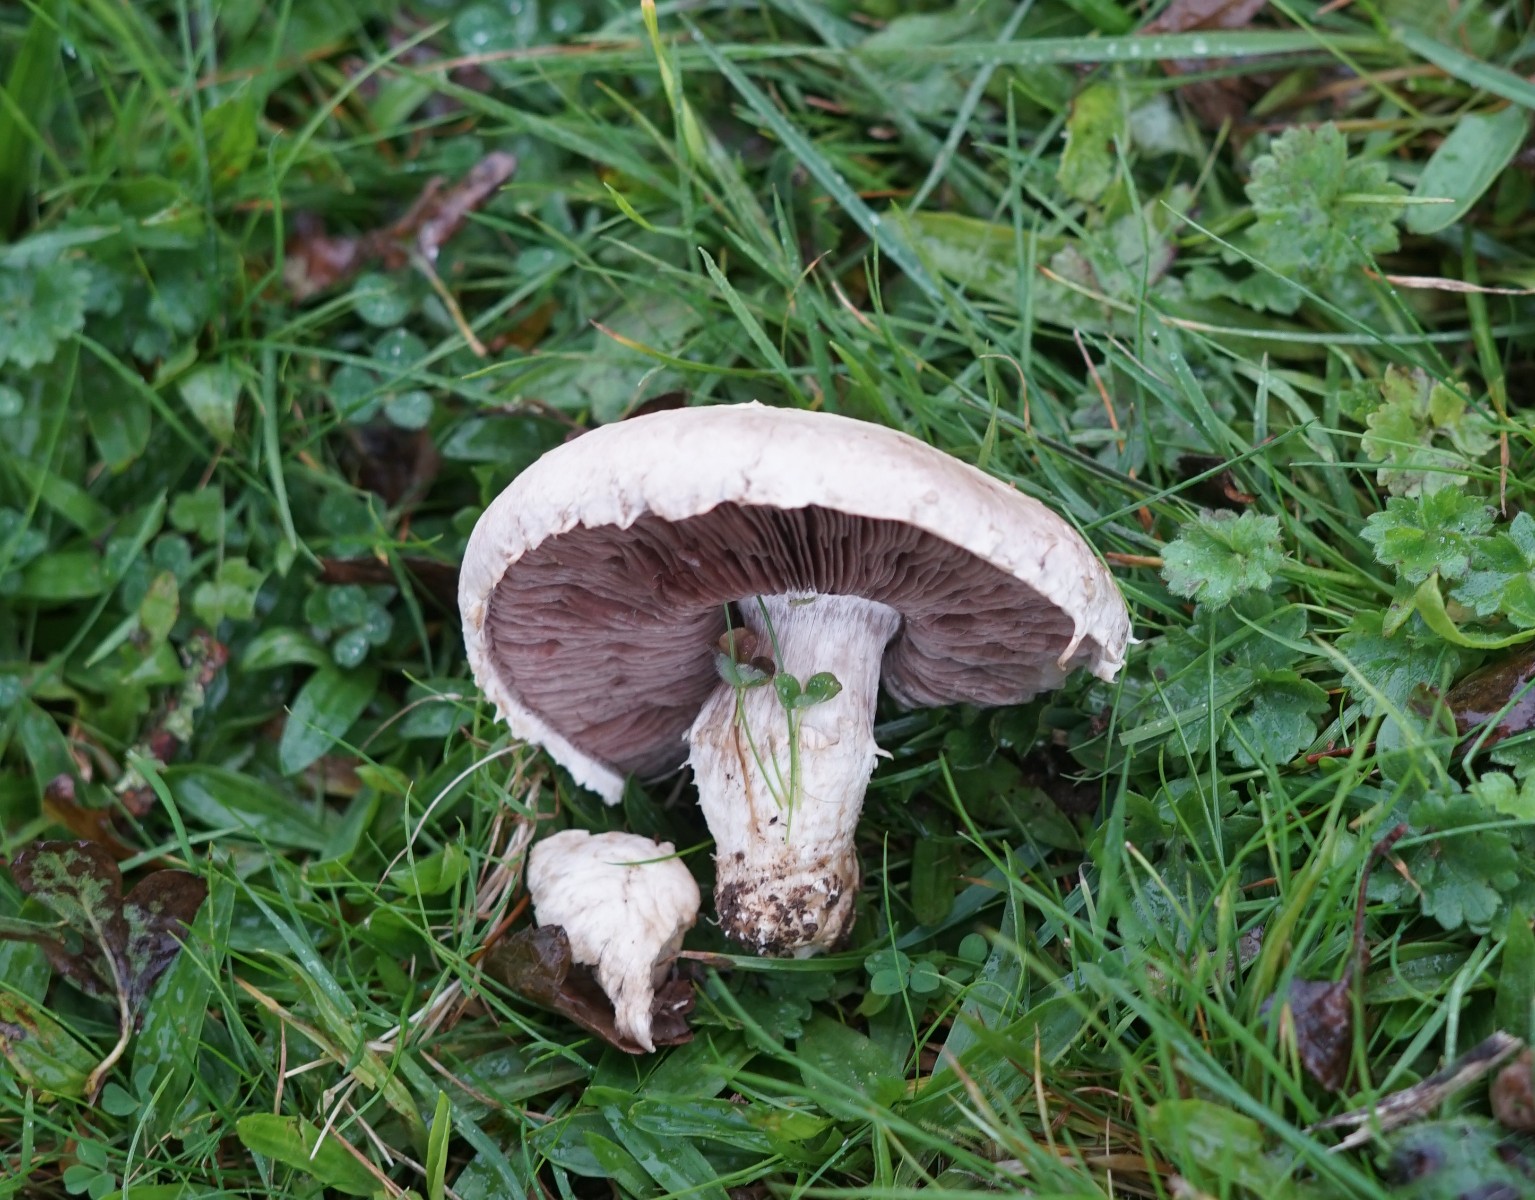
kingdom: Fungi
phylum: Basidiomycota
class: Agaricomycetes
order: Agaricales
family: Agaricaceae
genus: Agaricus
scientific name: Agaricus
